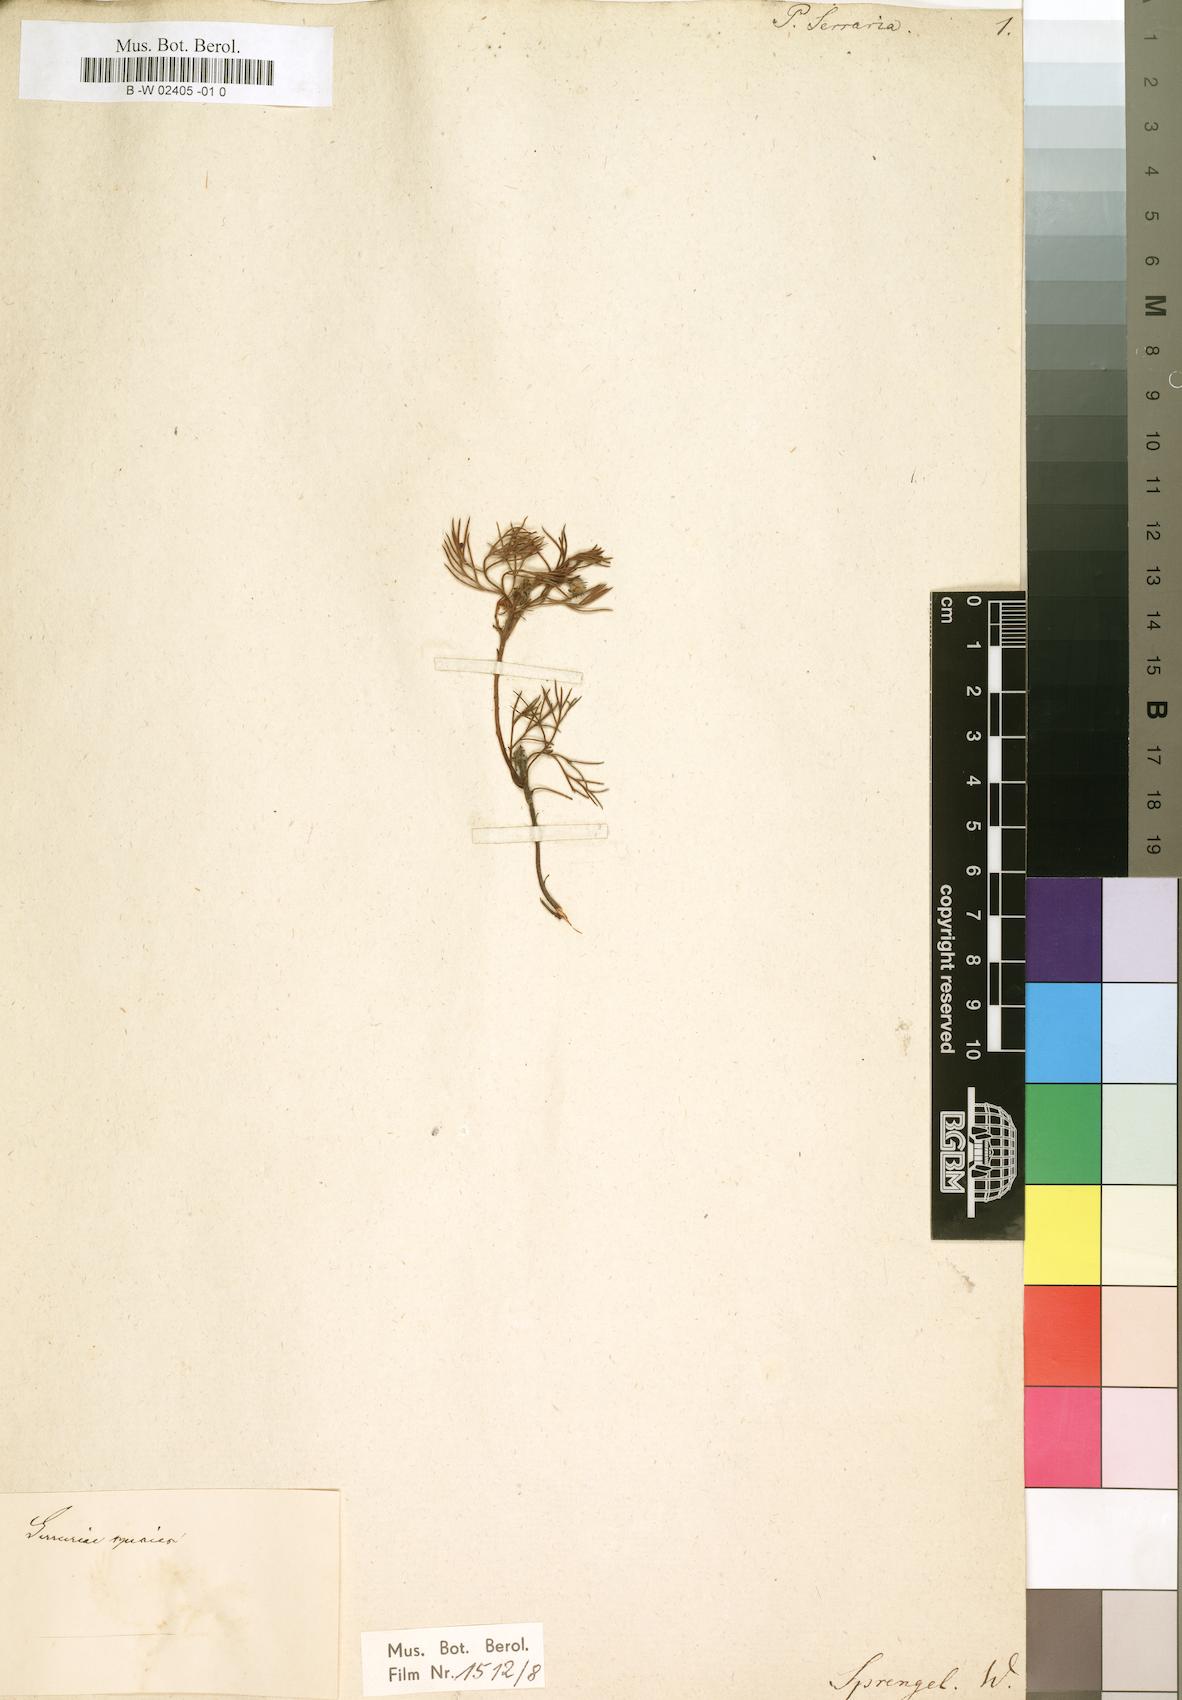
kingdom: Plantae
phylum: Tracheophyta
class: Magnoliopsida
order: Proteales
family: Proteaceae
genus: Serruria
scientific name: Serruria fasciflora
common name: Common pin spiderhead
